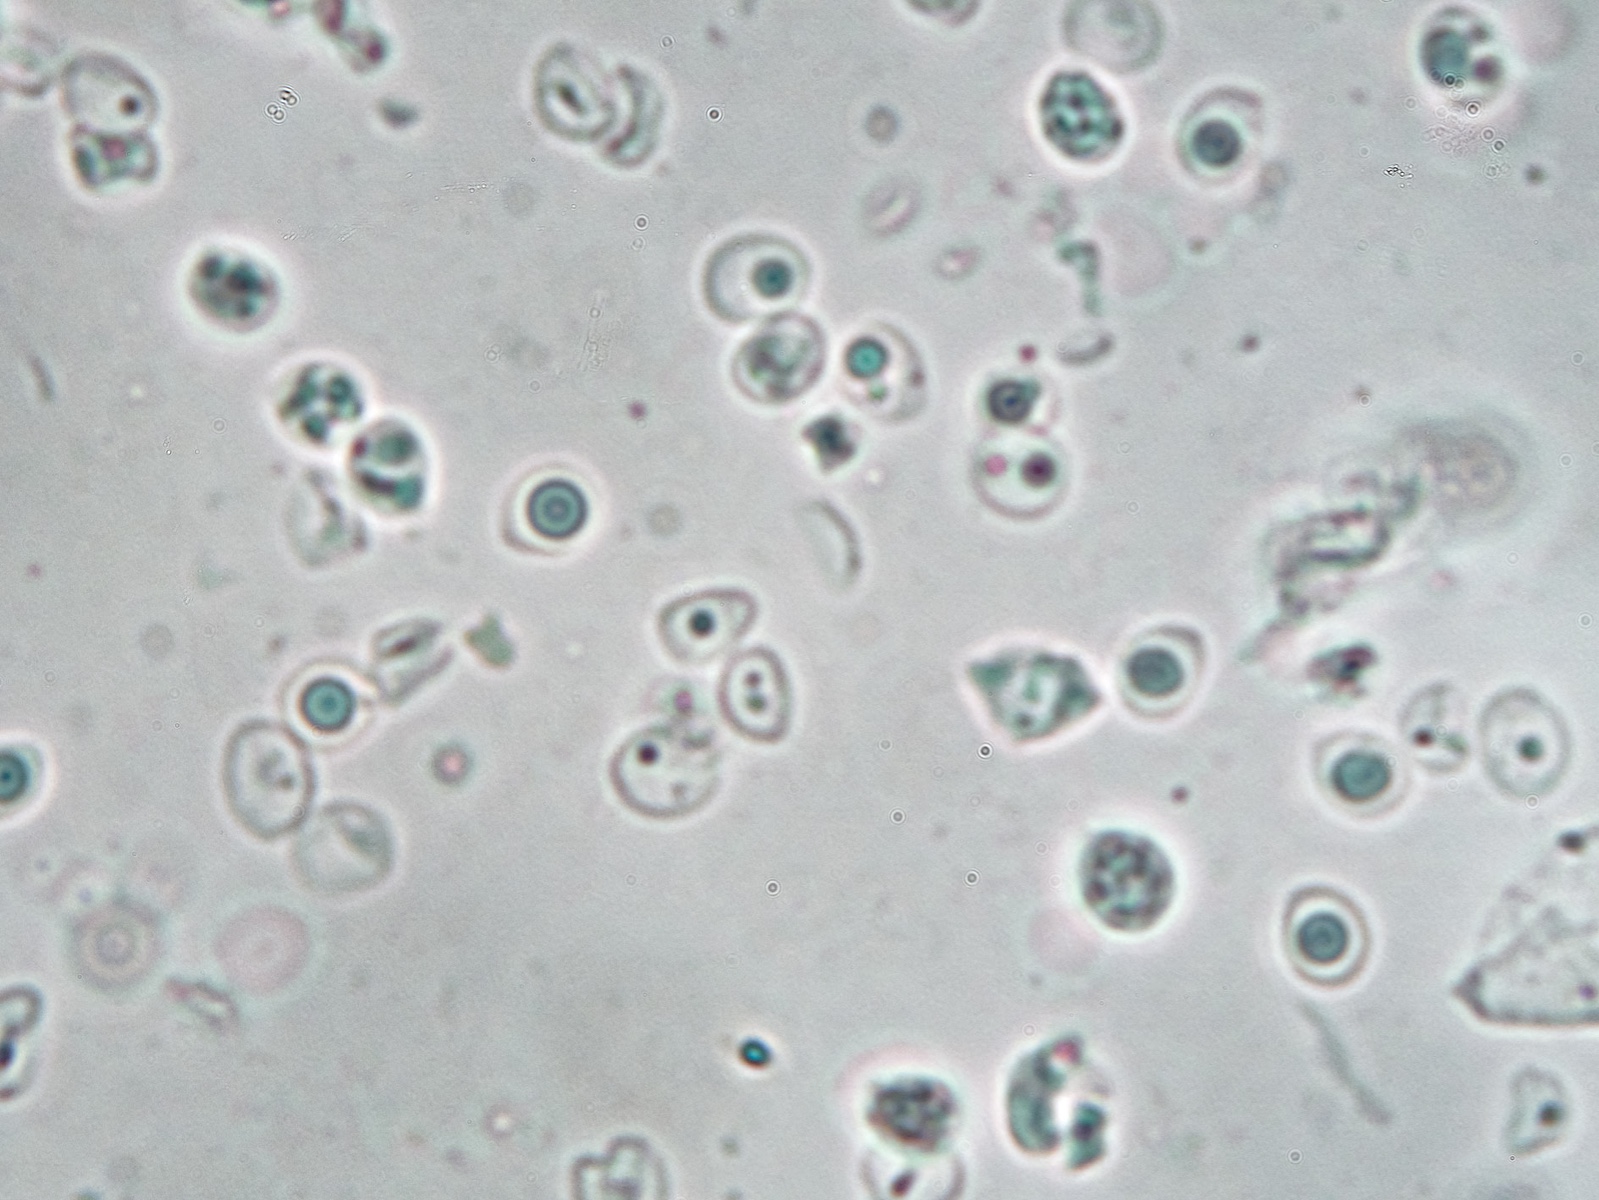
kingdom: Fungi
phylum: Basidiomycota
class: Agaricomycetes
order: Polyporales
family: Steccherinaceae
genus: Steccherinum
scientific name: Steccherinum lacerum
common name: trådet skønporesvamp
